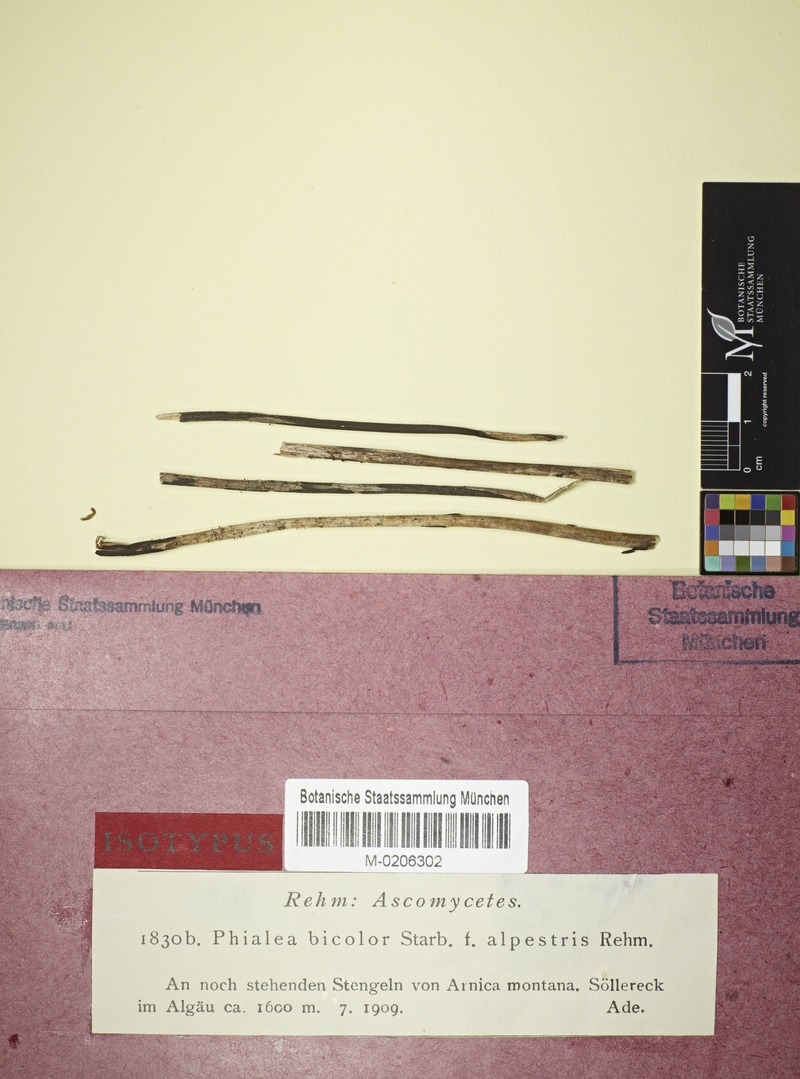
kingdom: Fungi
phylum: Ascomycota
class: Leotiomycetes
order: Helotiales
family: Helotiaceae
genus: Crocicreas
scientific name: Crocicreas hysterioides
